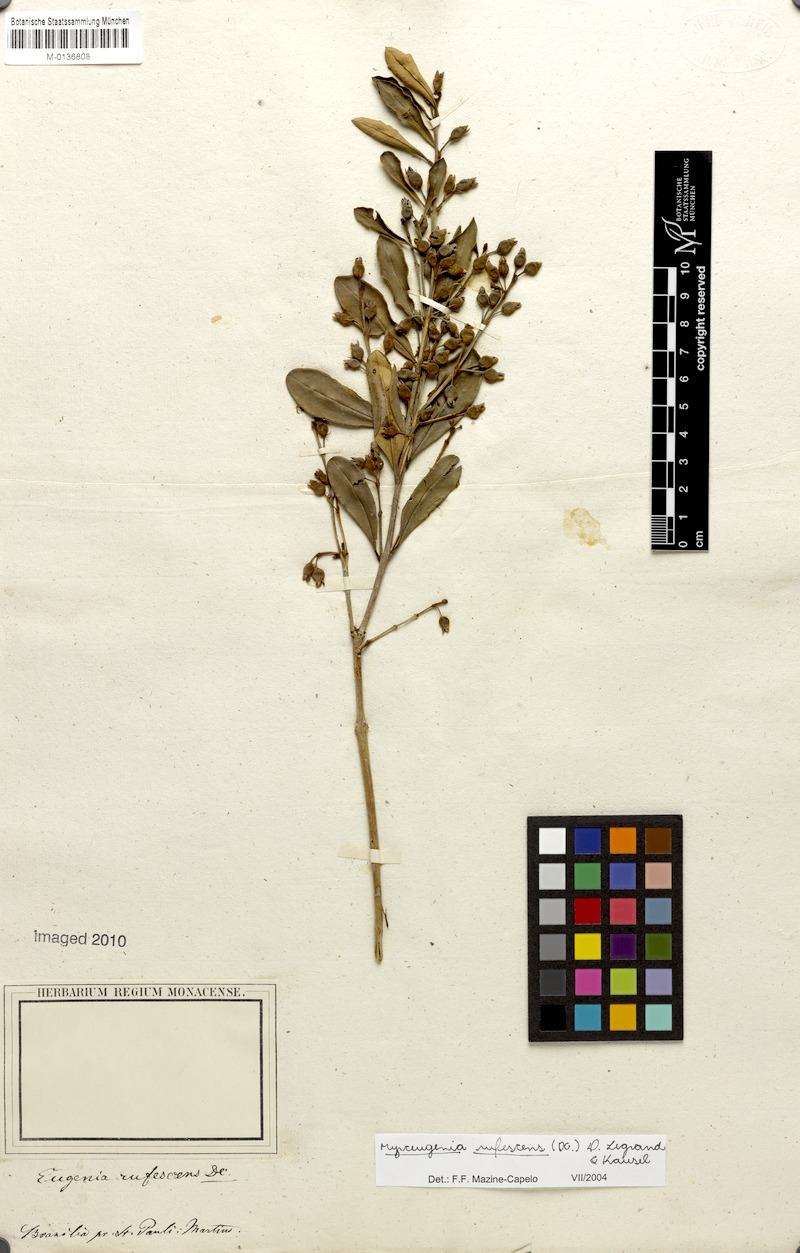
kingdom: Plantae
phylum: Tracheophyta
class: Magnoliopsida
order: Myrtales
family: Myrtaceae
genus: Myrceugenia
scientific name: Myrceugenia rufescens
